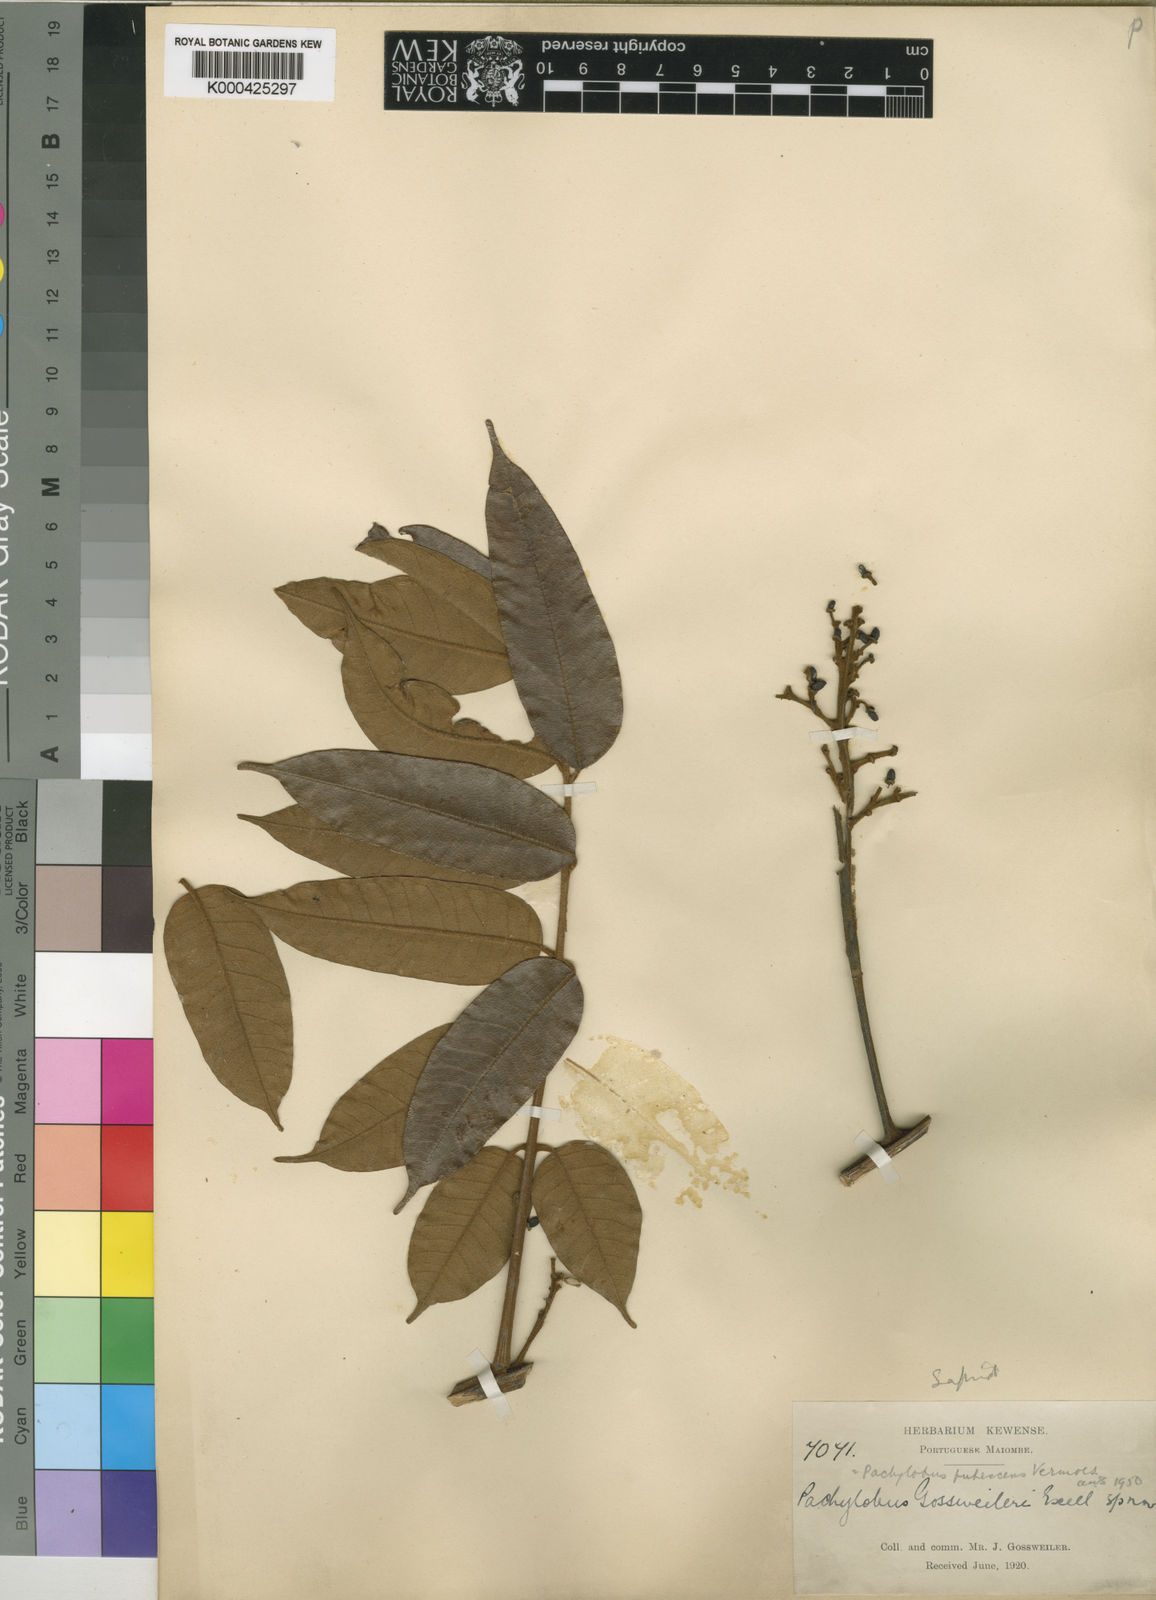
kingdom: Plantae
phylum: Tracheophyta
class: Magnoliopsida
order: Sapindales
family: Burseraceae
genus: Pachylobus
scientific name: Pachylobus pubescens
